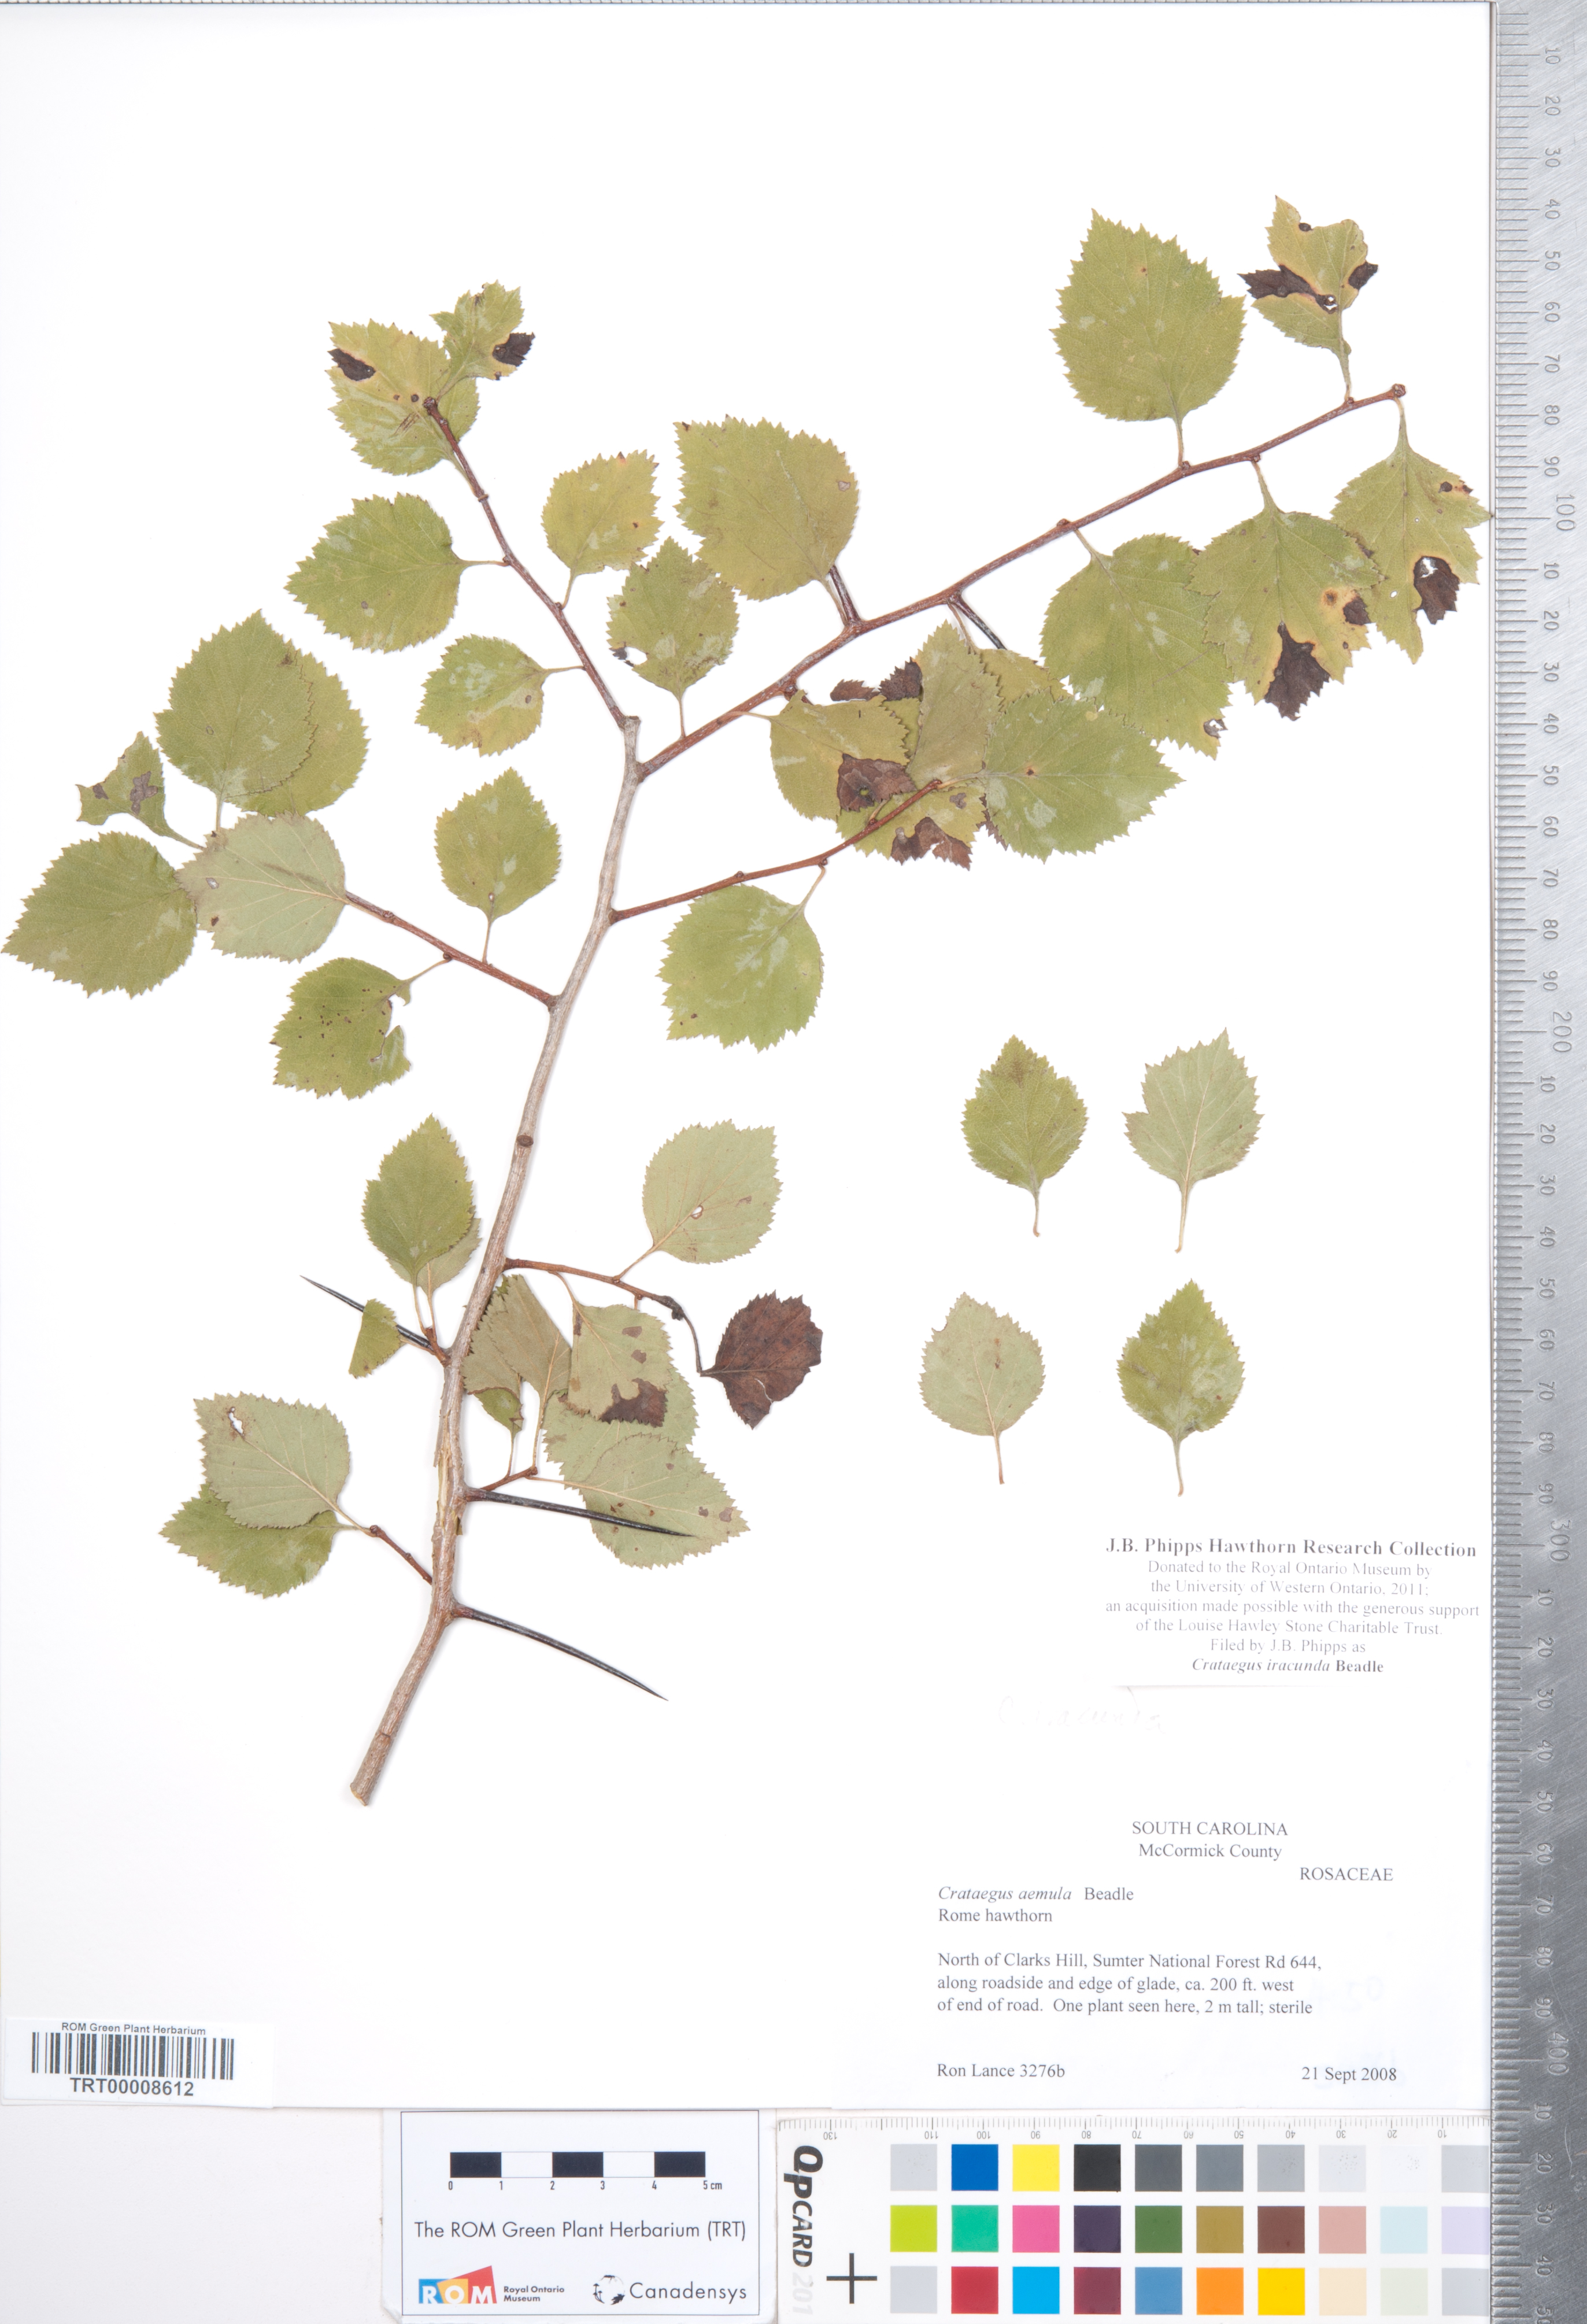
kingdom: Plantae
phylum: Tracheophyta
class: Magnoliopsida
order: Rosales
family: Rosaceae
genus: Crataegus
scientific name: Crataegus iracunda
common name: Stolon-bearing hawthorn
